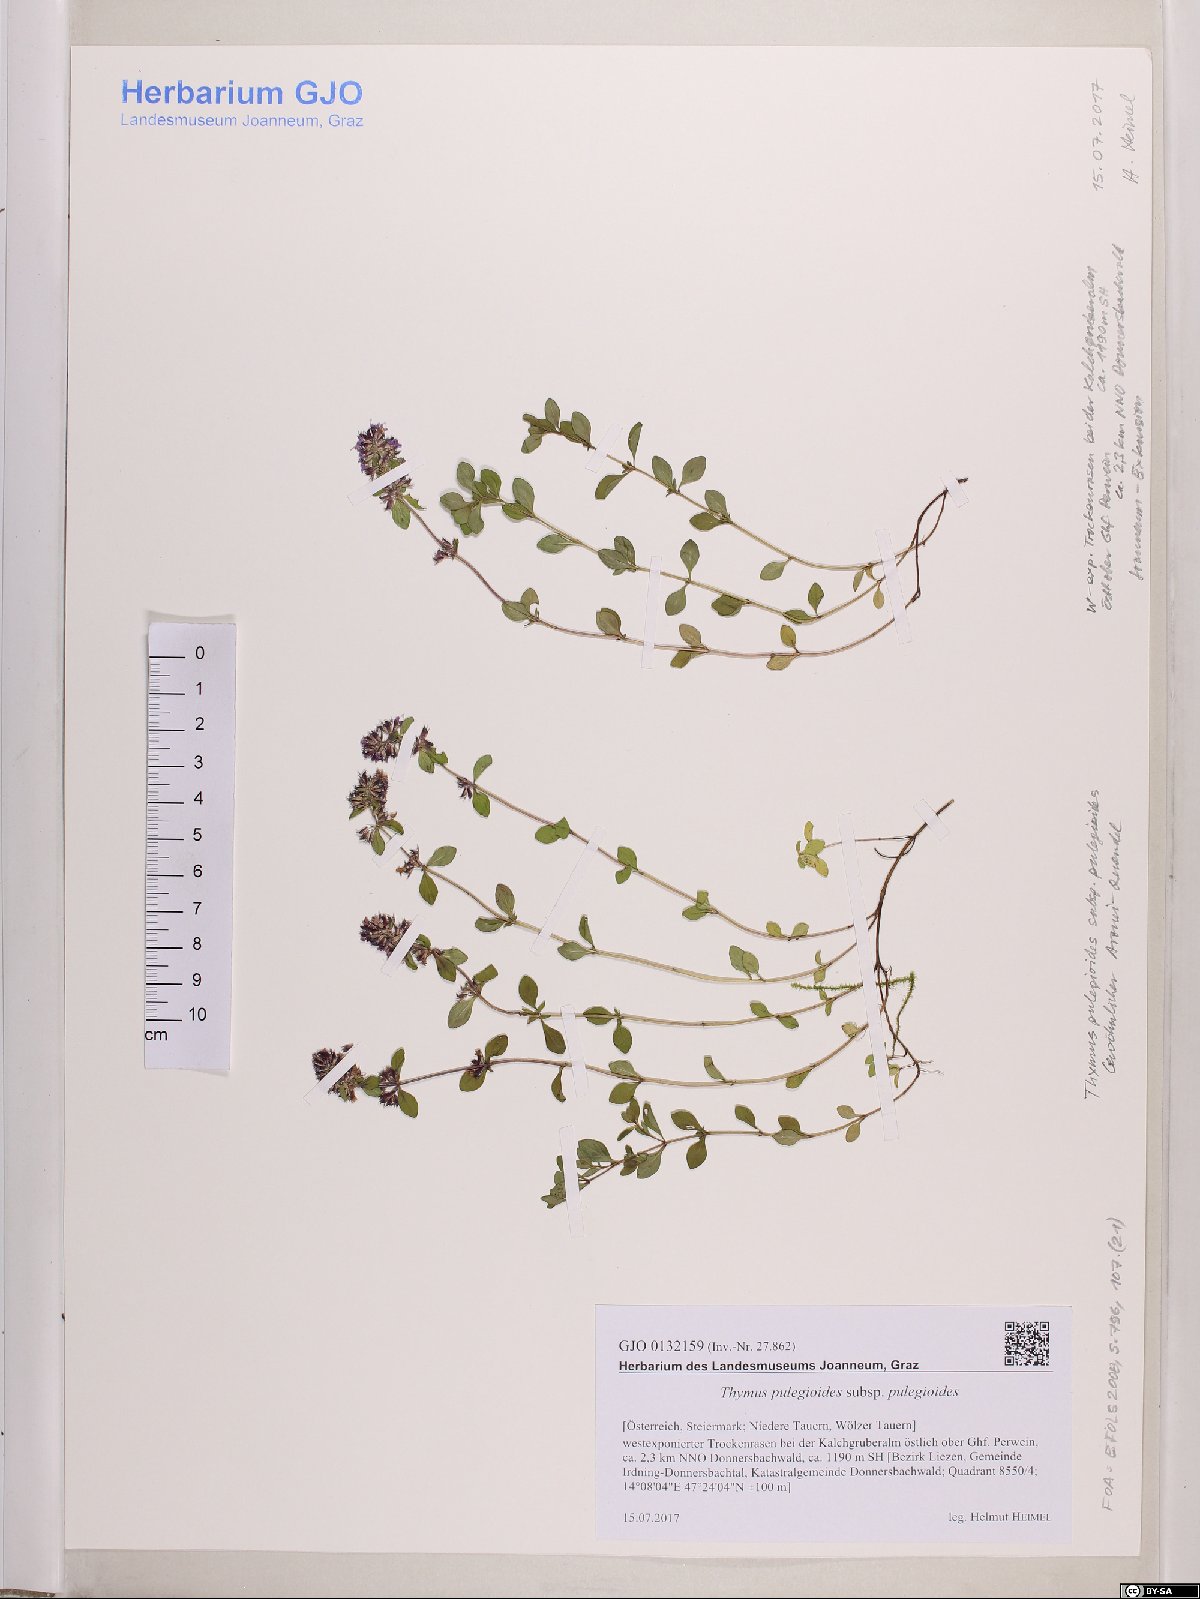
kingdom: Plantae
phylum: Tracheophyta
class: Magnoliopsida
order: Lamiales
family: Lamiaceae
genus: Thymus
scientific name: Thymus pulegioides
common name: Large thyme
